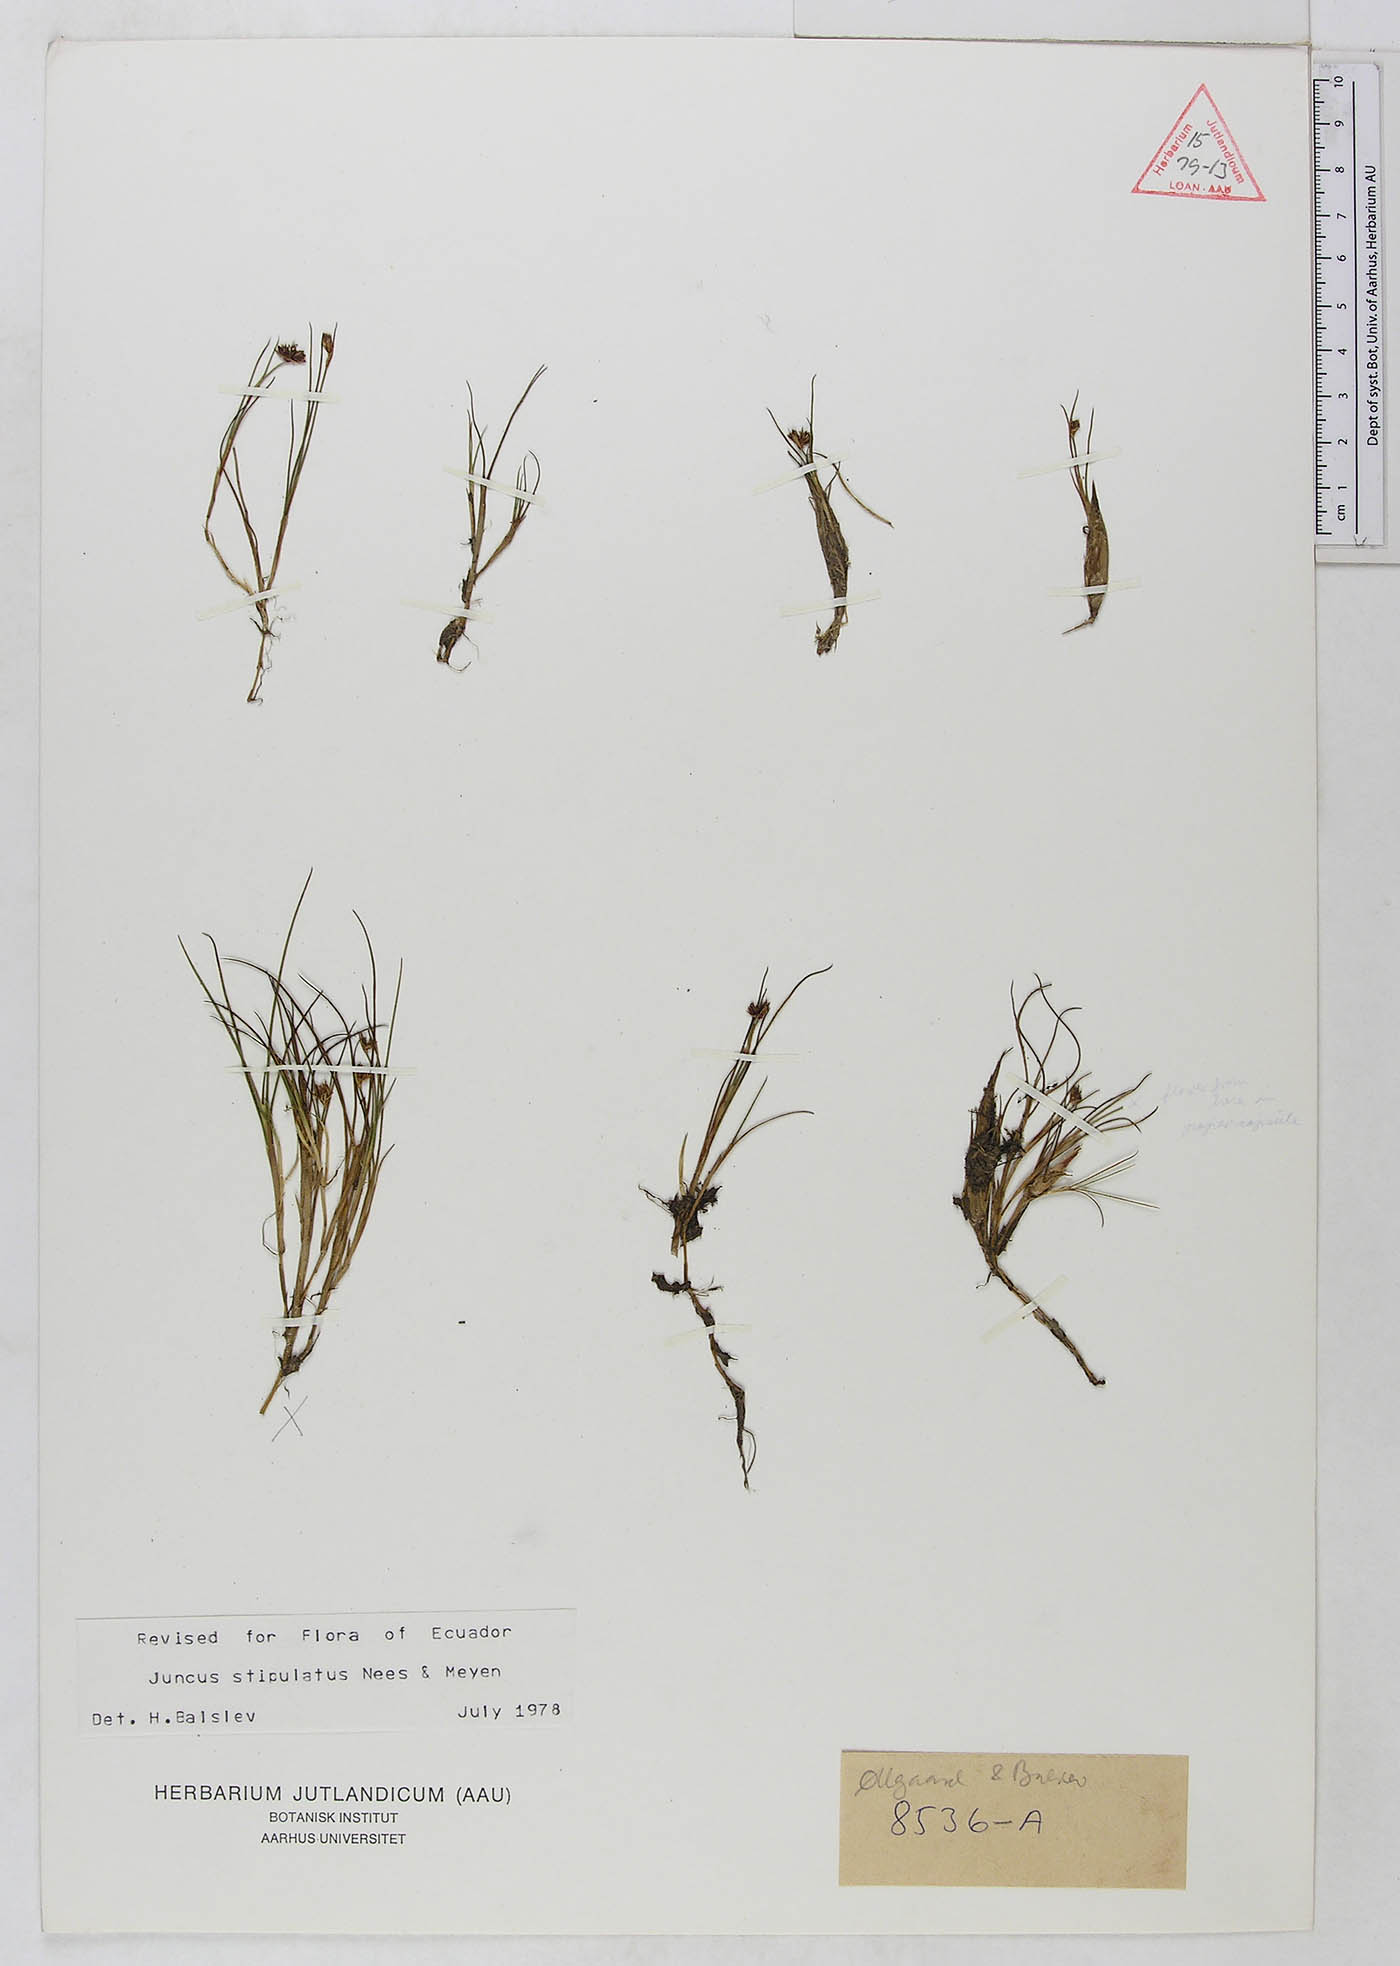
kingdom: Plantae
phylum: Tracheophyta
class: Liliopsida
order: Poales
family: Juncaceae
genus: Juncus
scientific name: Juncus stipulatus
